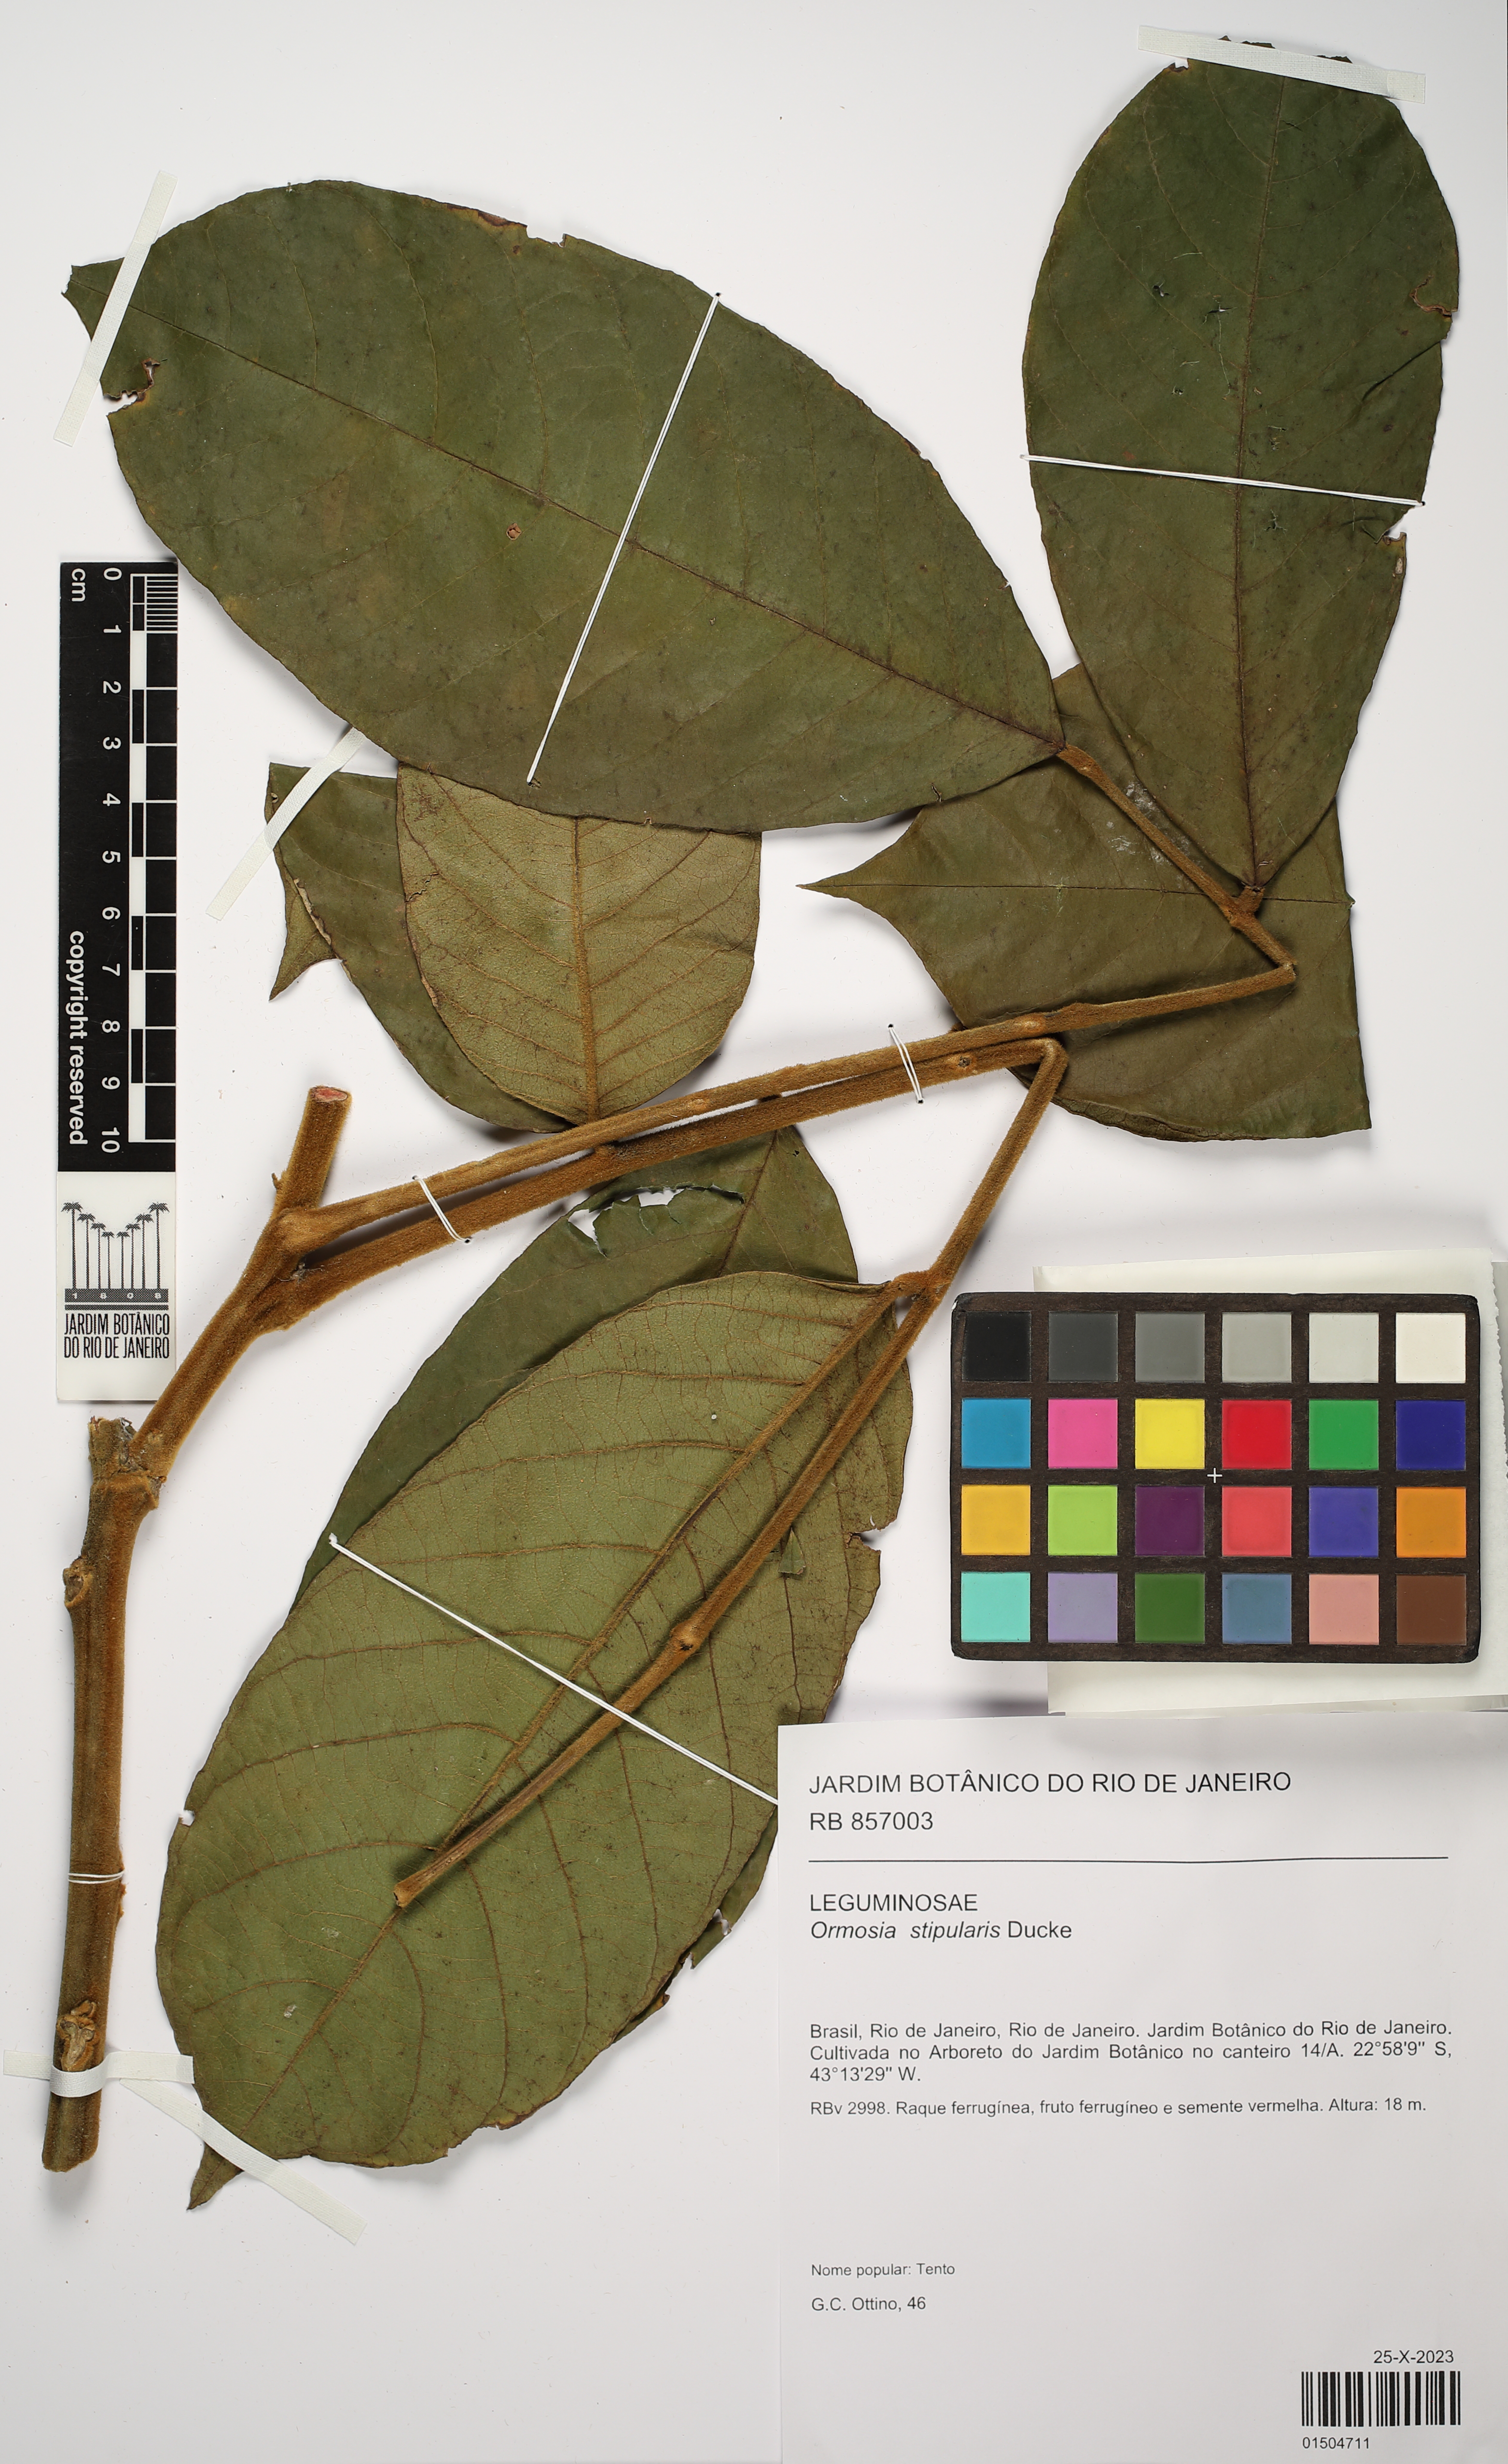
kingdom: Plantae
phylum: Tracheophyta
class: Magnoliopsida
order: Fabales
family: Fabaceae
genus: Ormosia
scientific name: Ormosia stipularis
